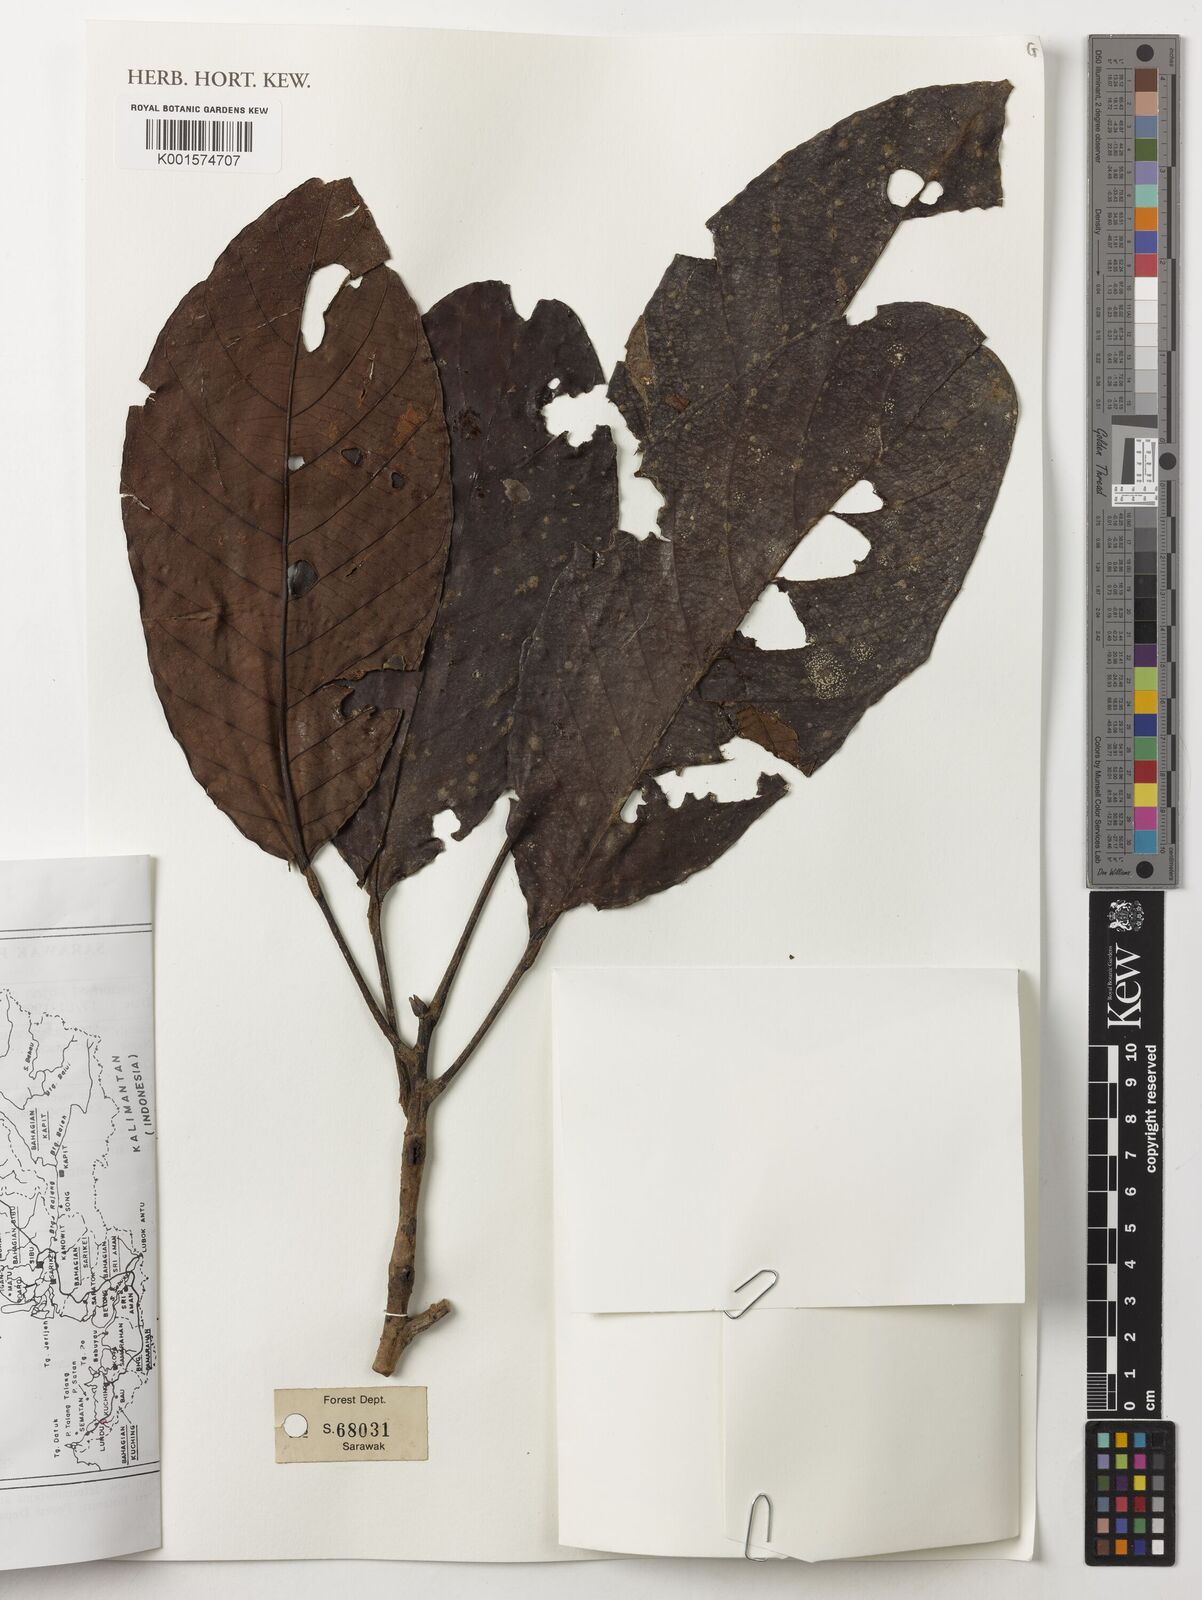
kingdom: Plantae
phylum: Tracheophyta
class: Magnoliopsida
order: Malpighiales
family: Phyllanthaceae
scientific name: Phyllanthaceae
